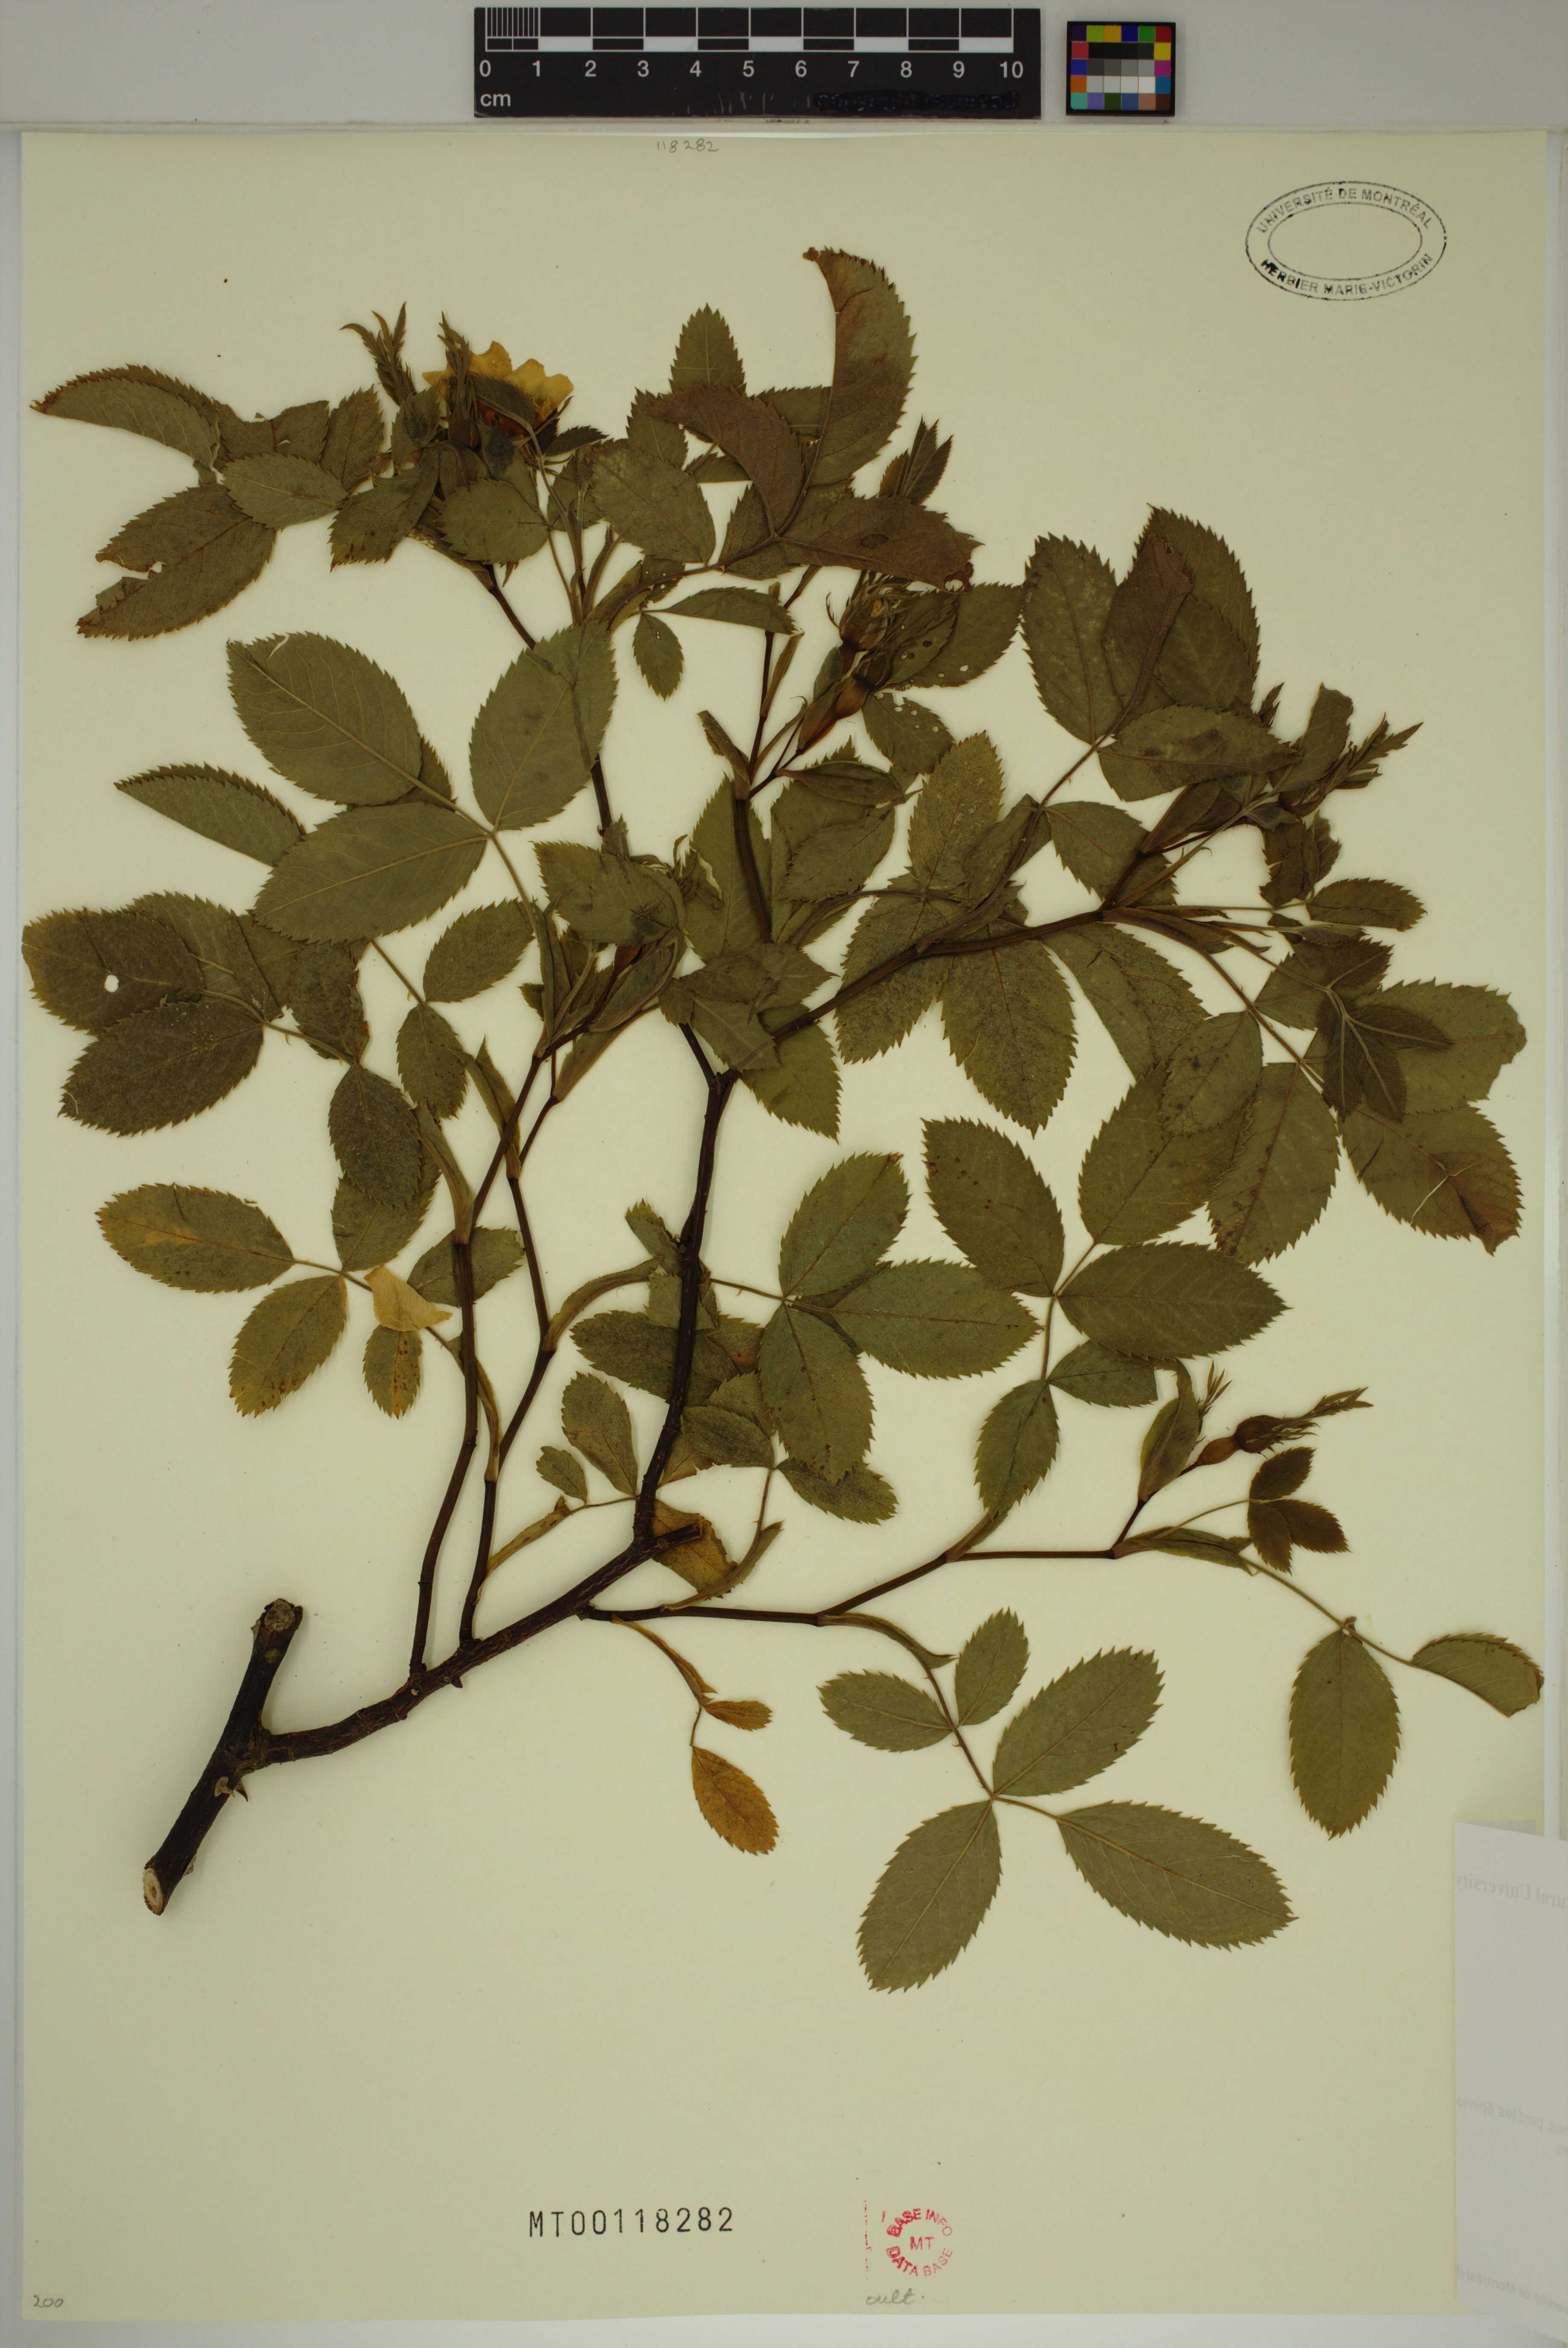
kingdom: Plantae
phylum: Tracheophyta
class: Magnoliopsida
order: Rosales
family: Rosaceae
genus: Rosa
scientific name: Rosa canina
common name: Dog rose
